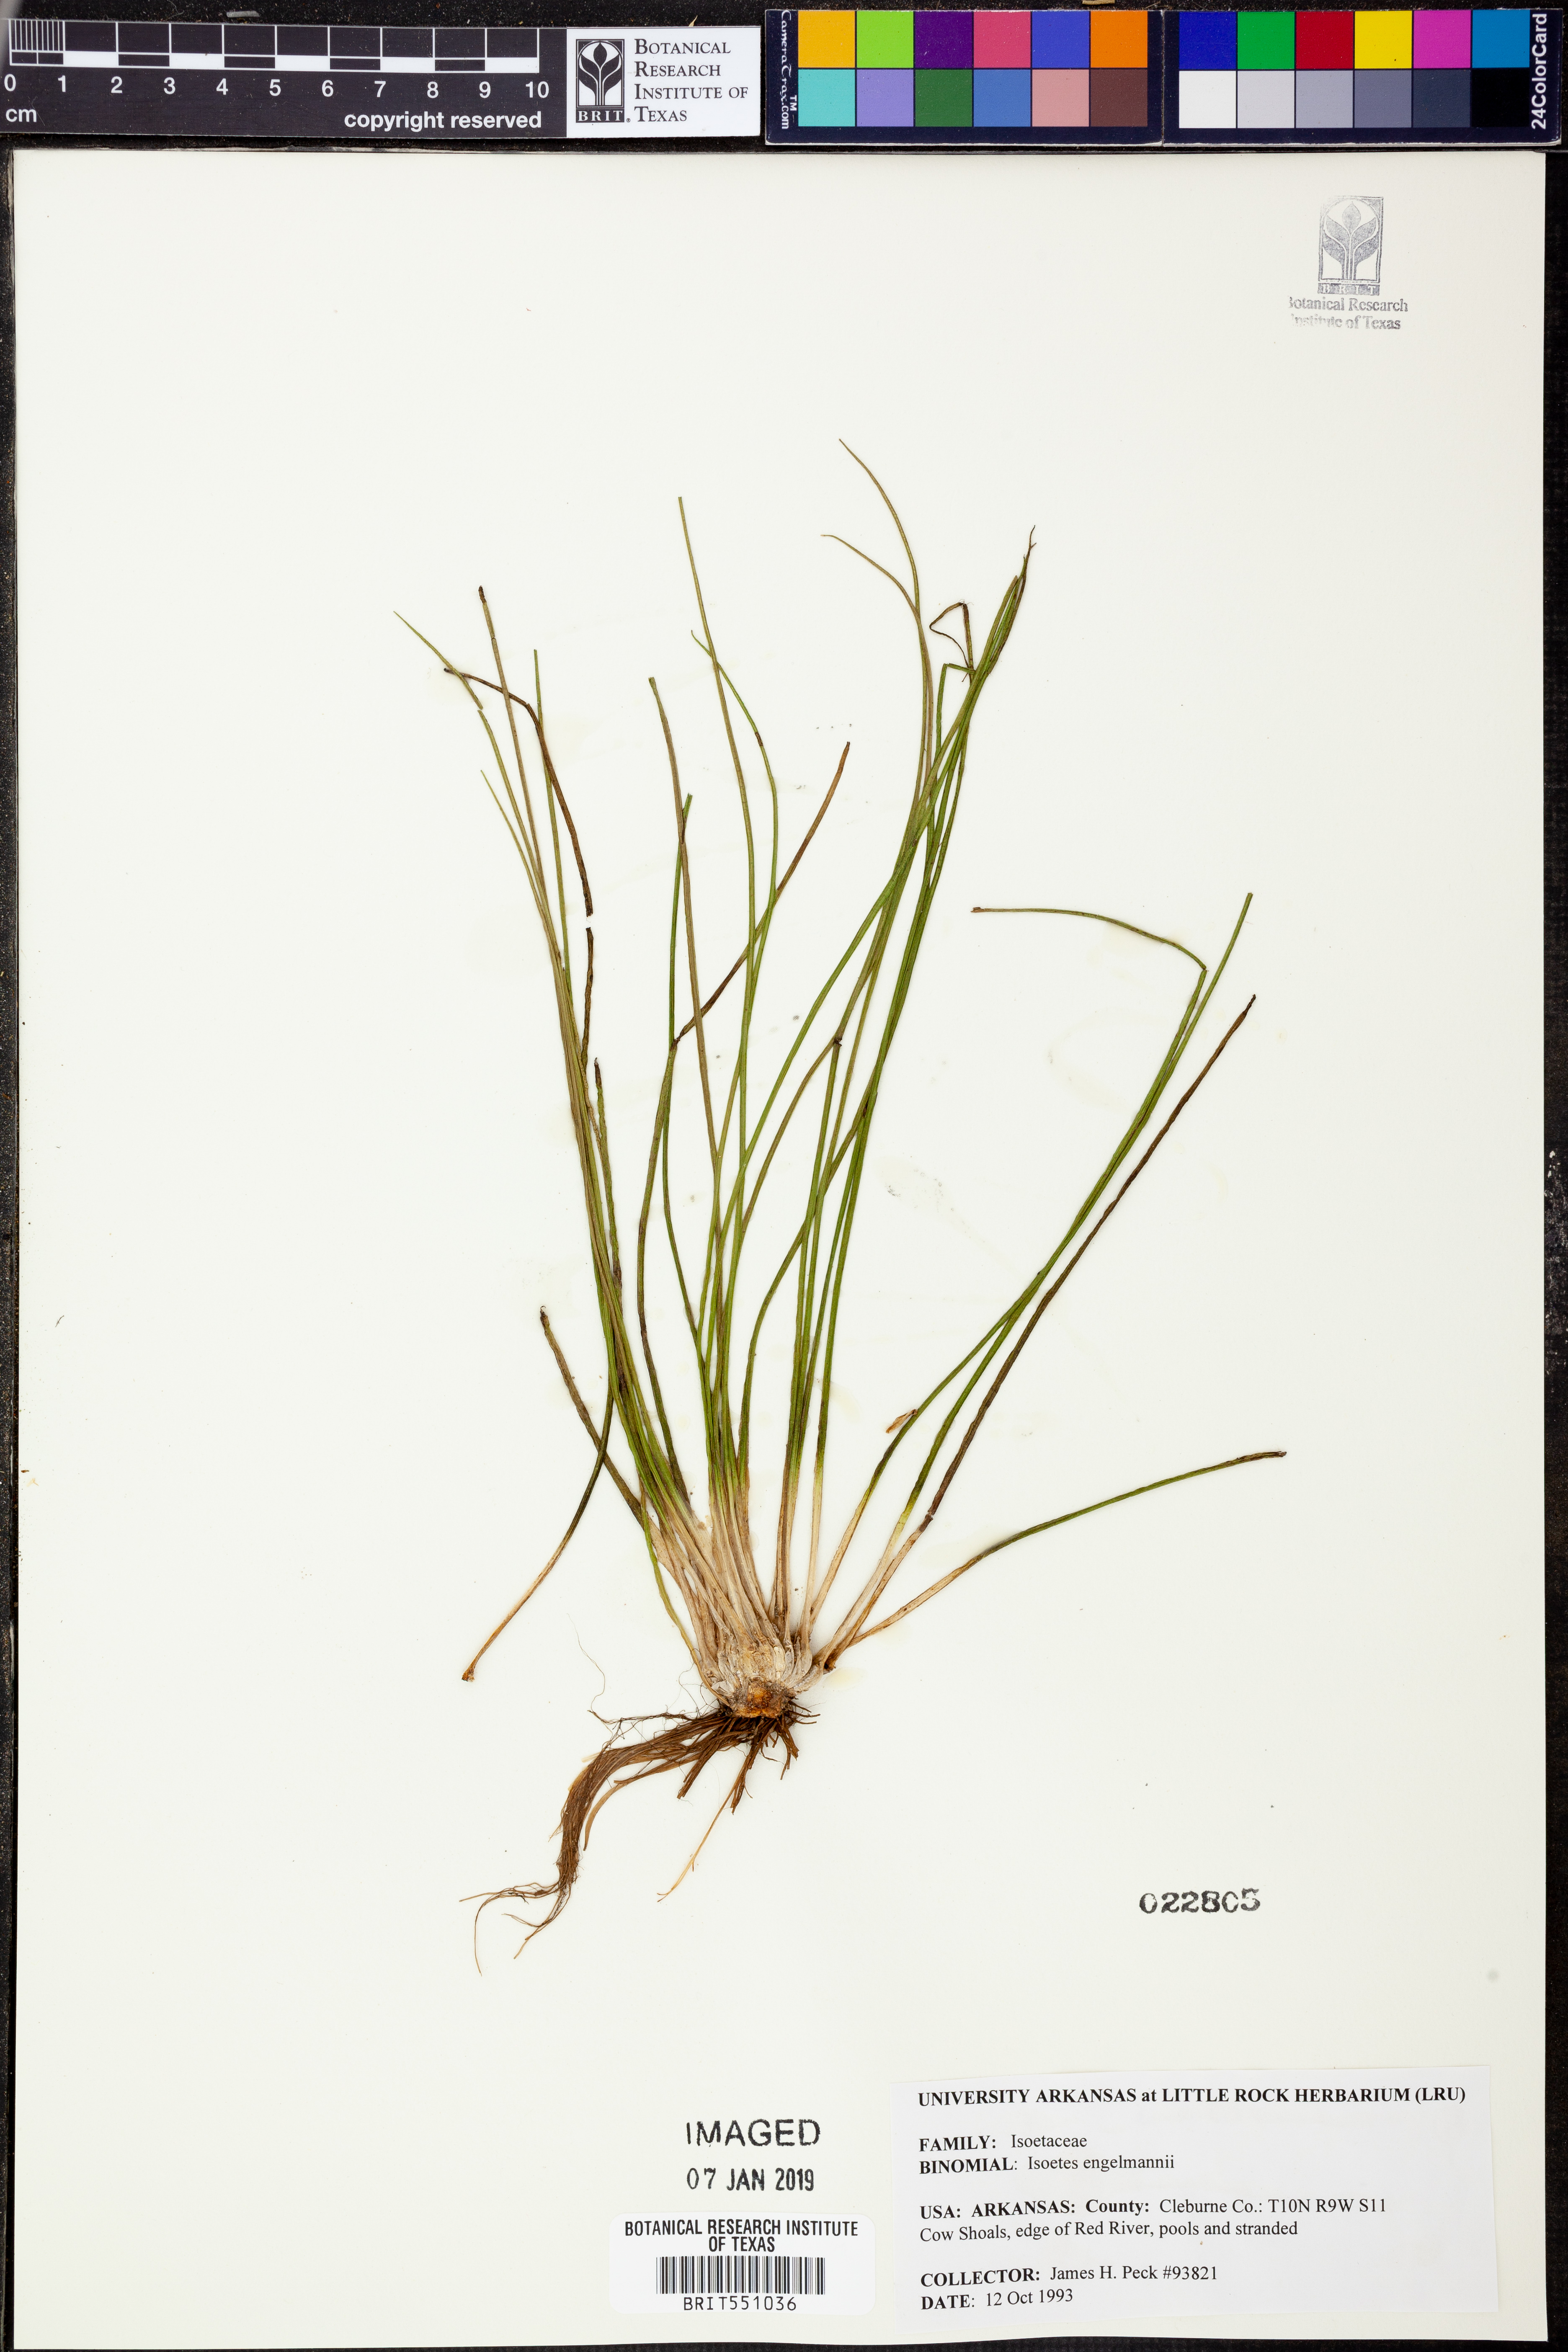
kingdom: Plantae
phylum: Tracheophyta
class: Lycopodiopsida
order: Isoetales
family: Isoetaceae
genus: Isoetes
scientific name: Isoetes engelmannii
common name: Engelmann's quillwort
